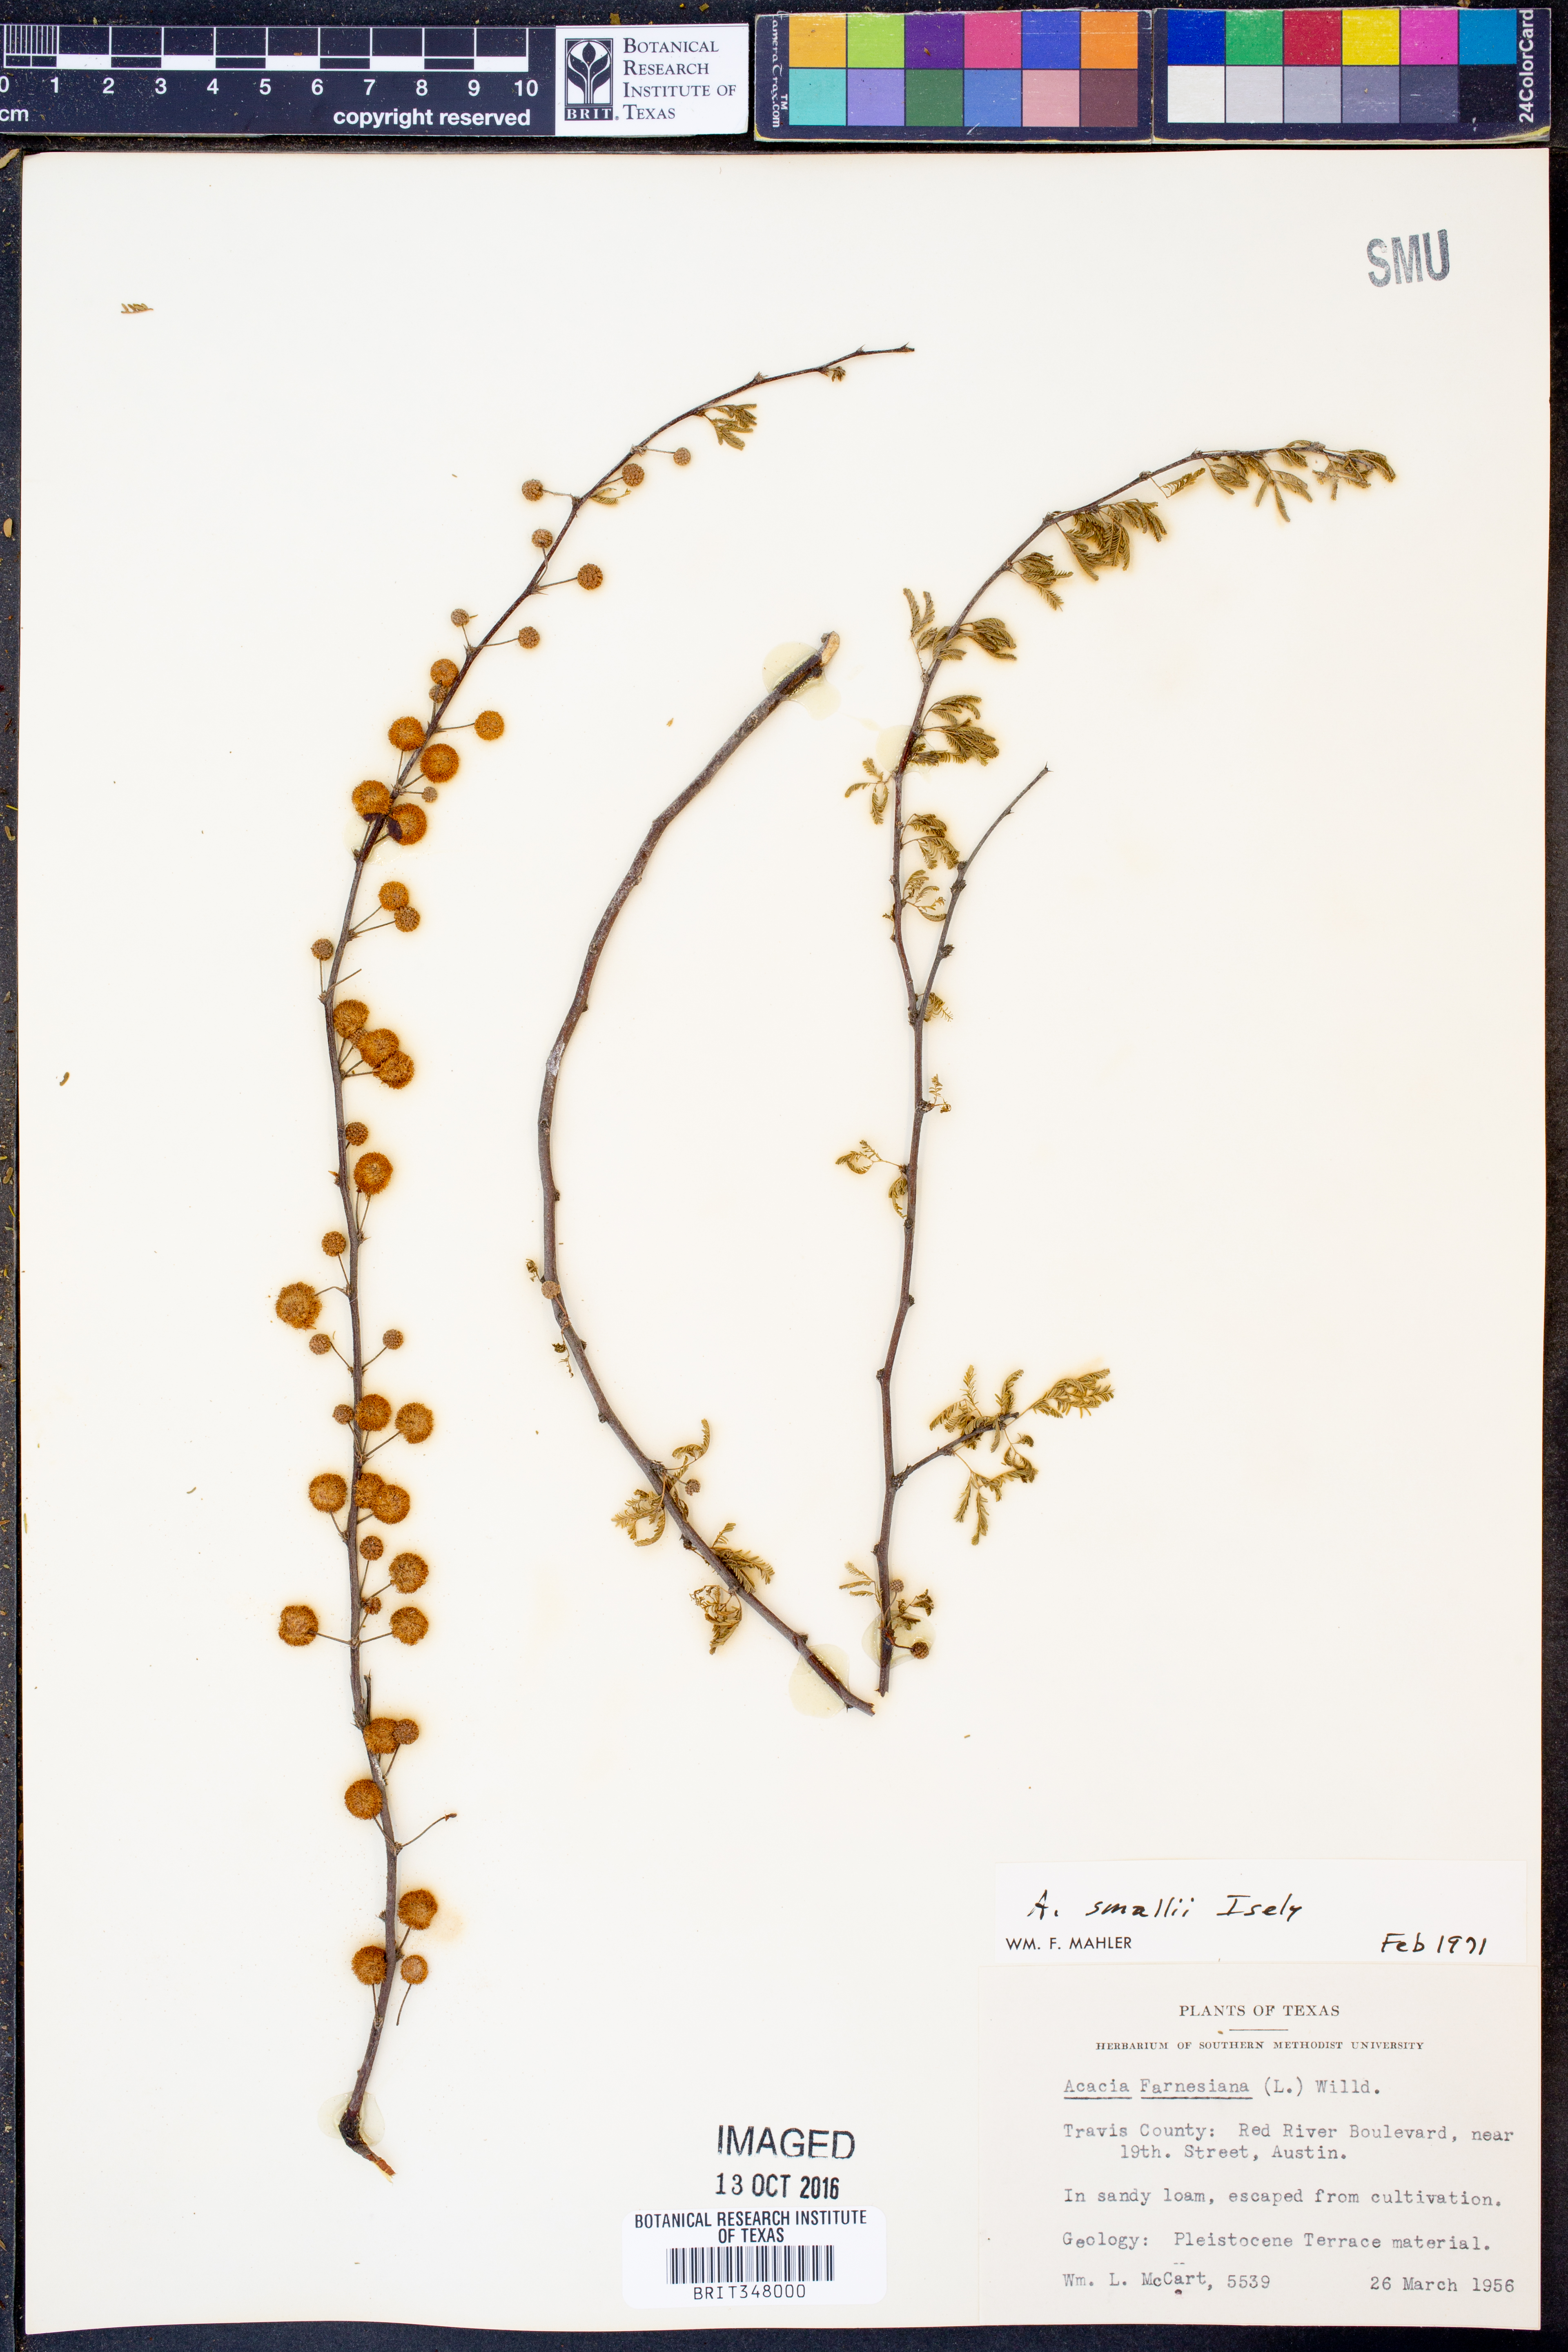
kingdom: Plantae
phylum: Tracheophyta
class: Magnoliopsida
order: Fabales
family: Fabaceae
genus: Vachellia
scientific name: Vachellia farnesiana
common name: Sweet acacia
